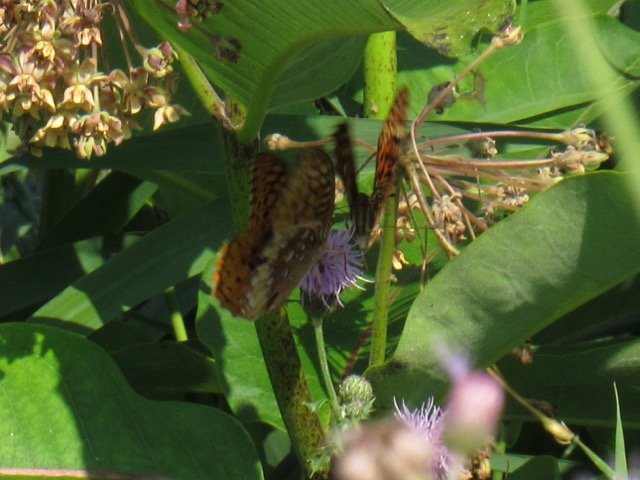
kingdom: Animalia
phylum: Arthropoda
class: Insecta
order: Lepidoptera
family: Nymphalidae
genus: Speyeria
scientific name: Speyeria cybele
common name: Great Spangled Fritillary
